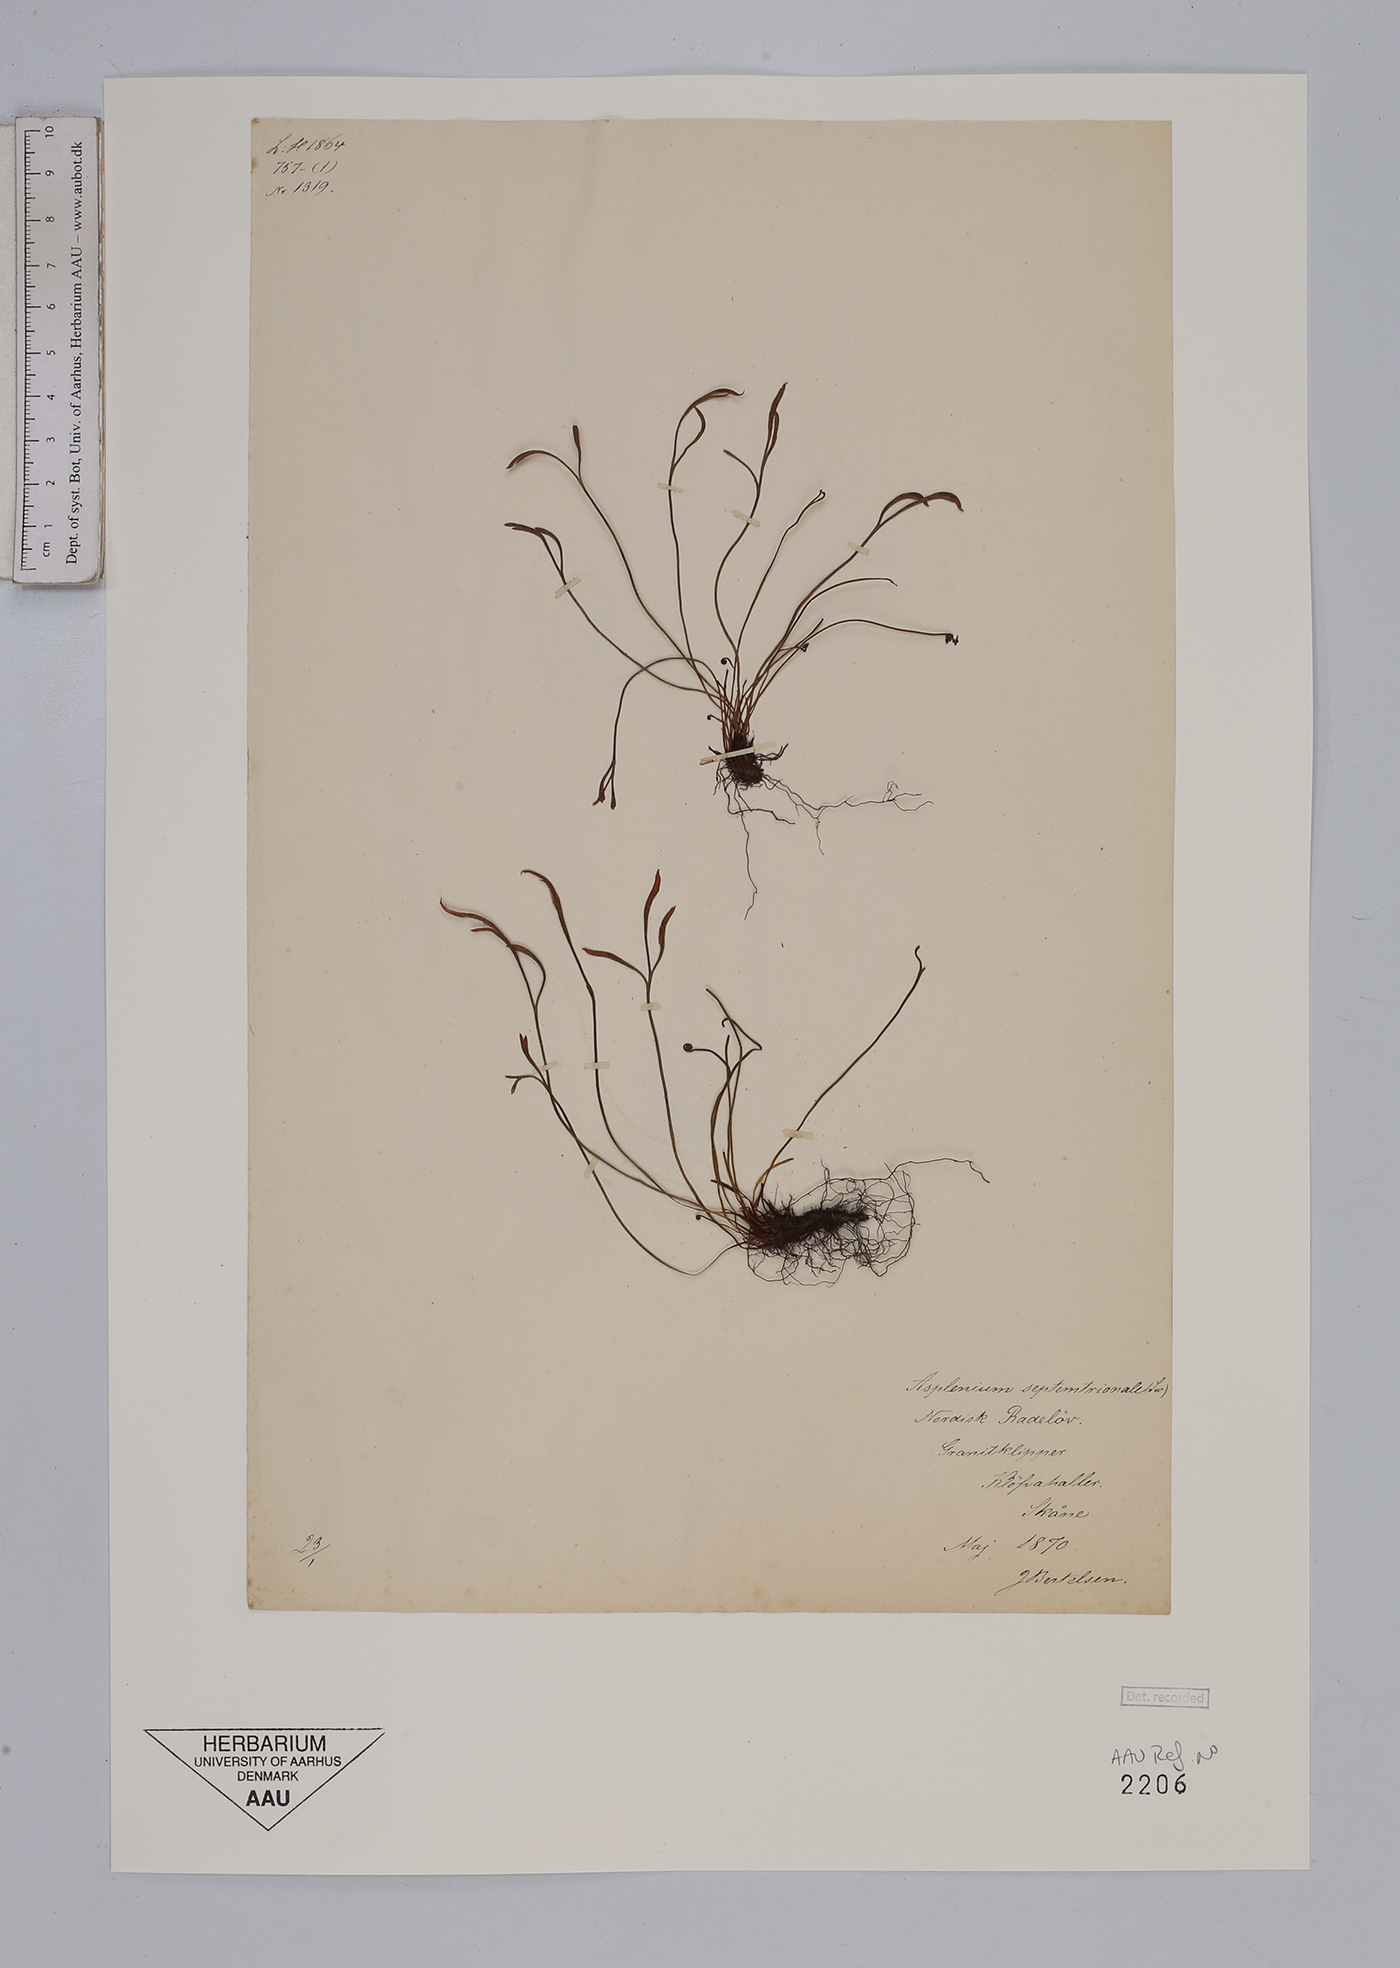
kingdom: Plantae
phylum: Tracheophyta
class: Polypodiopsida
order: Polypodiales
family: Aspleniaceae
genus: Asplenium
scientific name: Asplenium septentrionale
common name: Forked spleenwort
